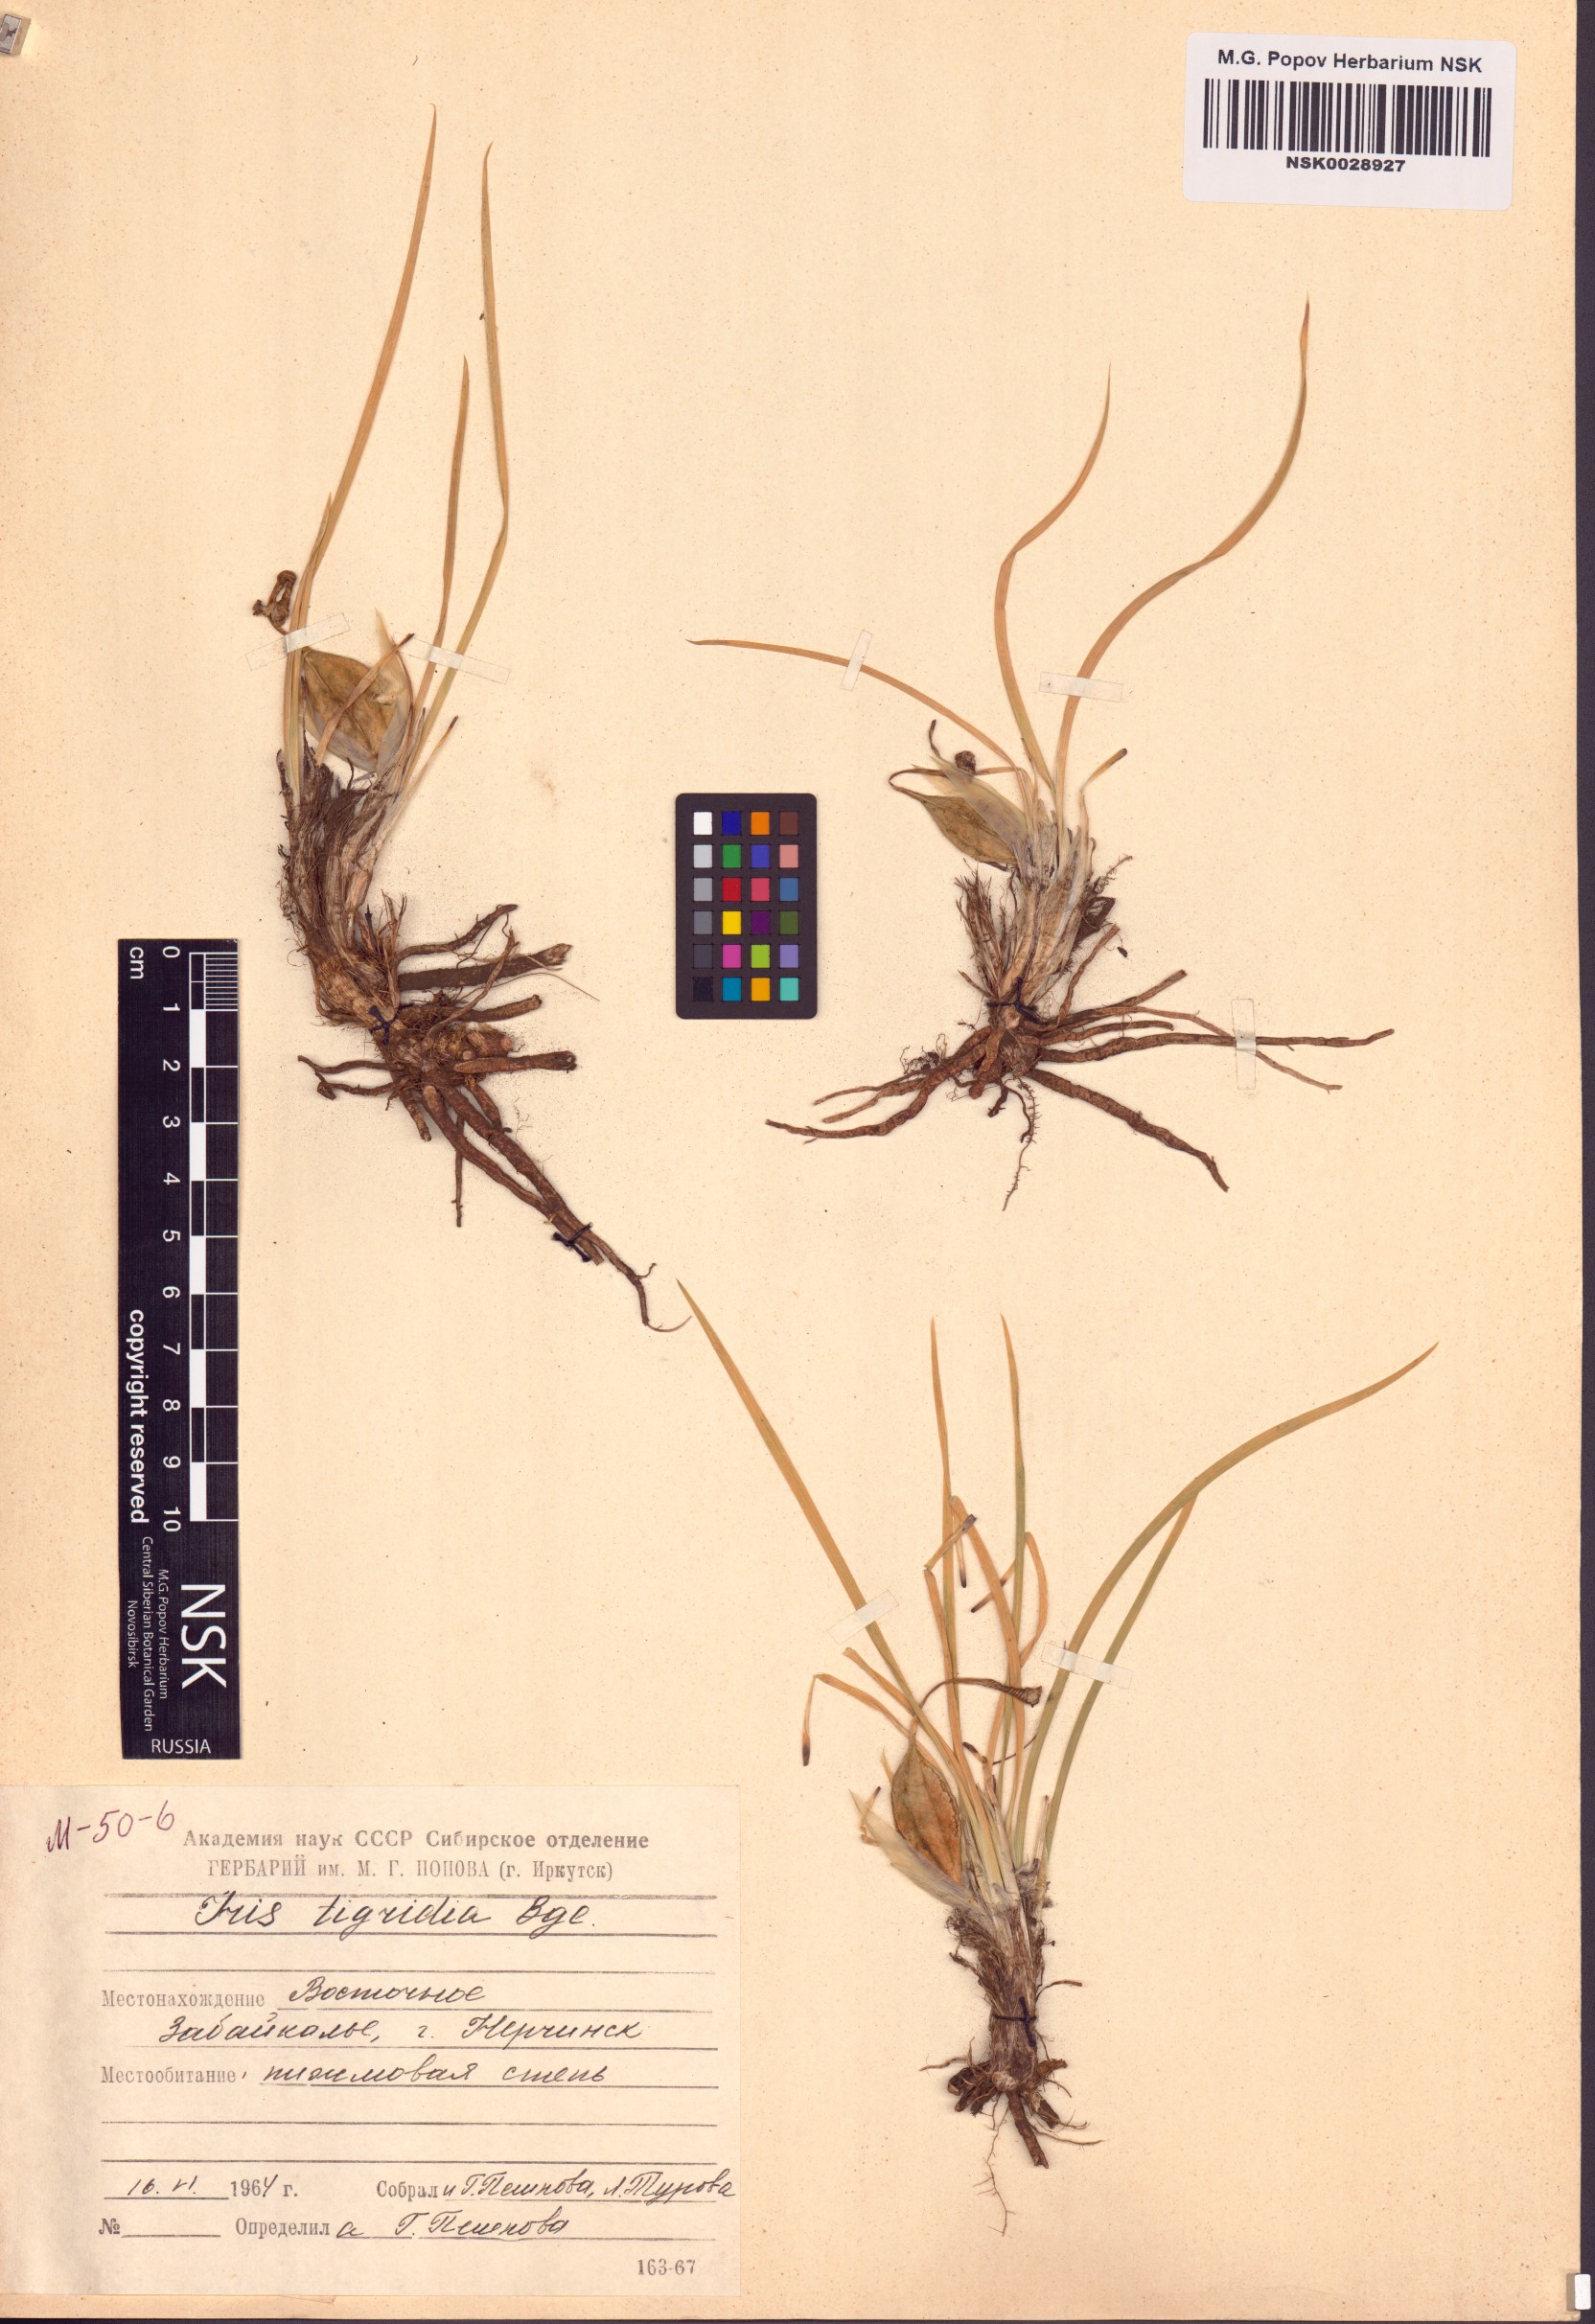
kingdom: Plantae
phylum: Tracheophyta
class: Liliopsida
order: Asparagales
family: Iridaceae
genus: Iris
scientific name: Iris tigridia
